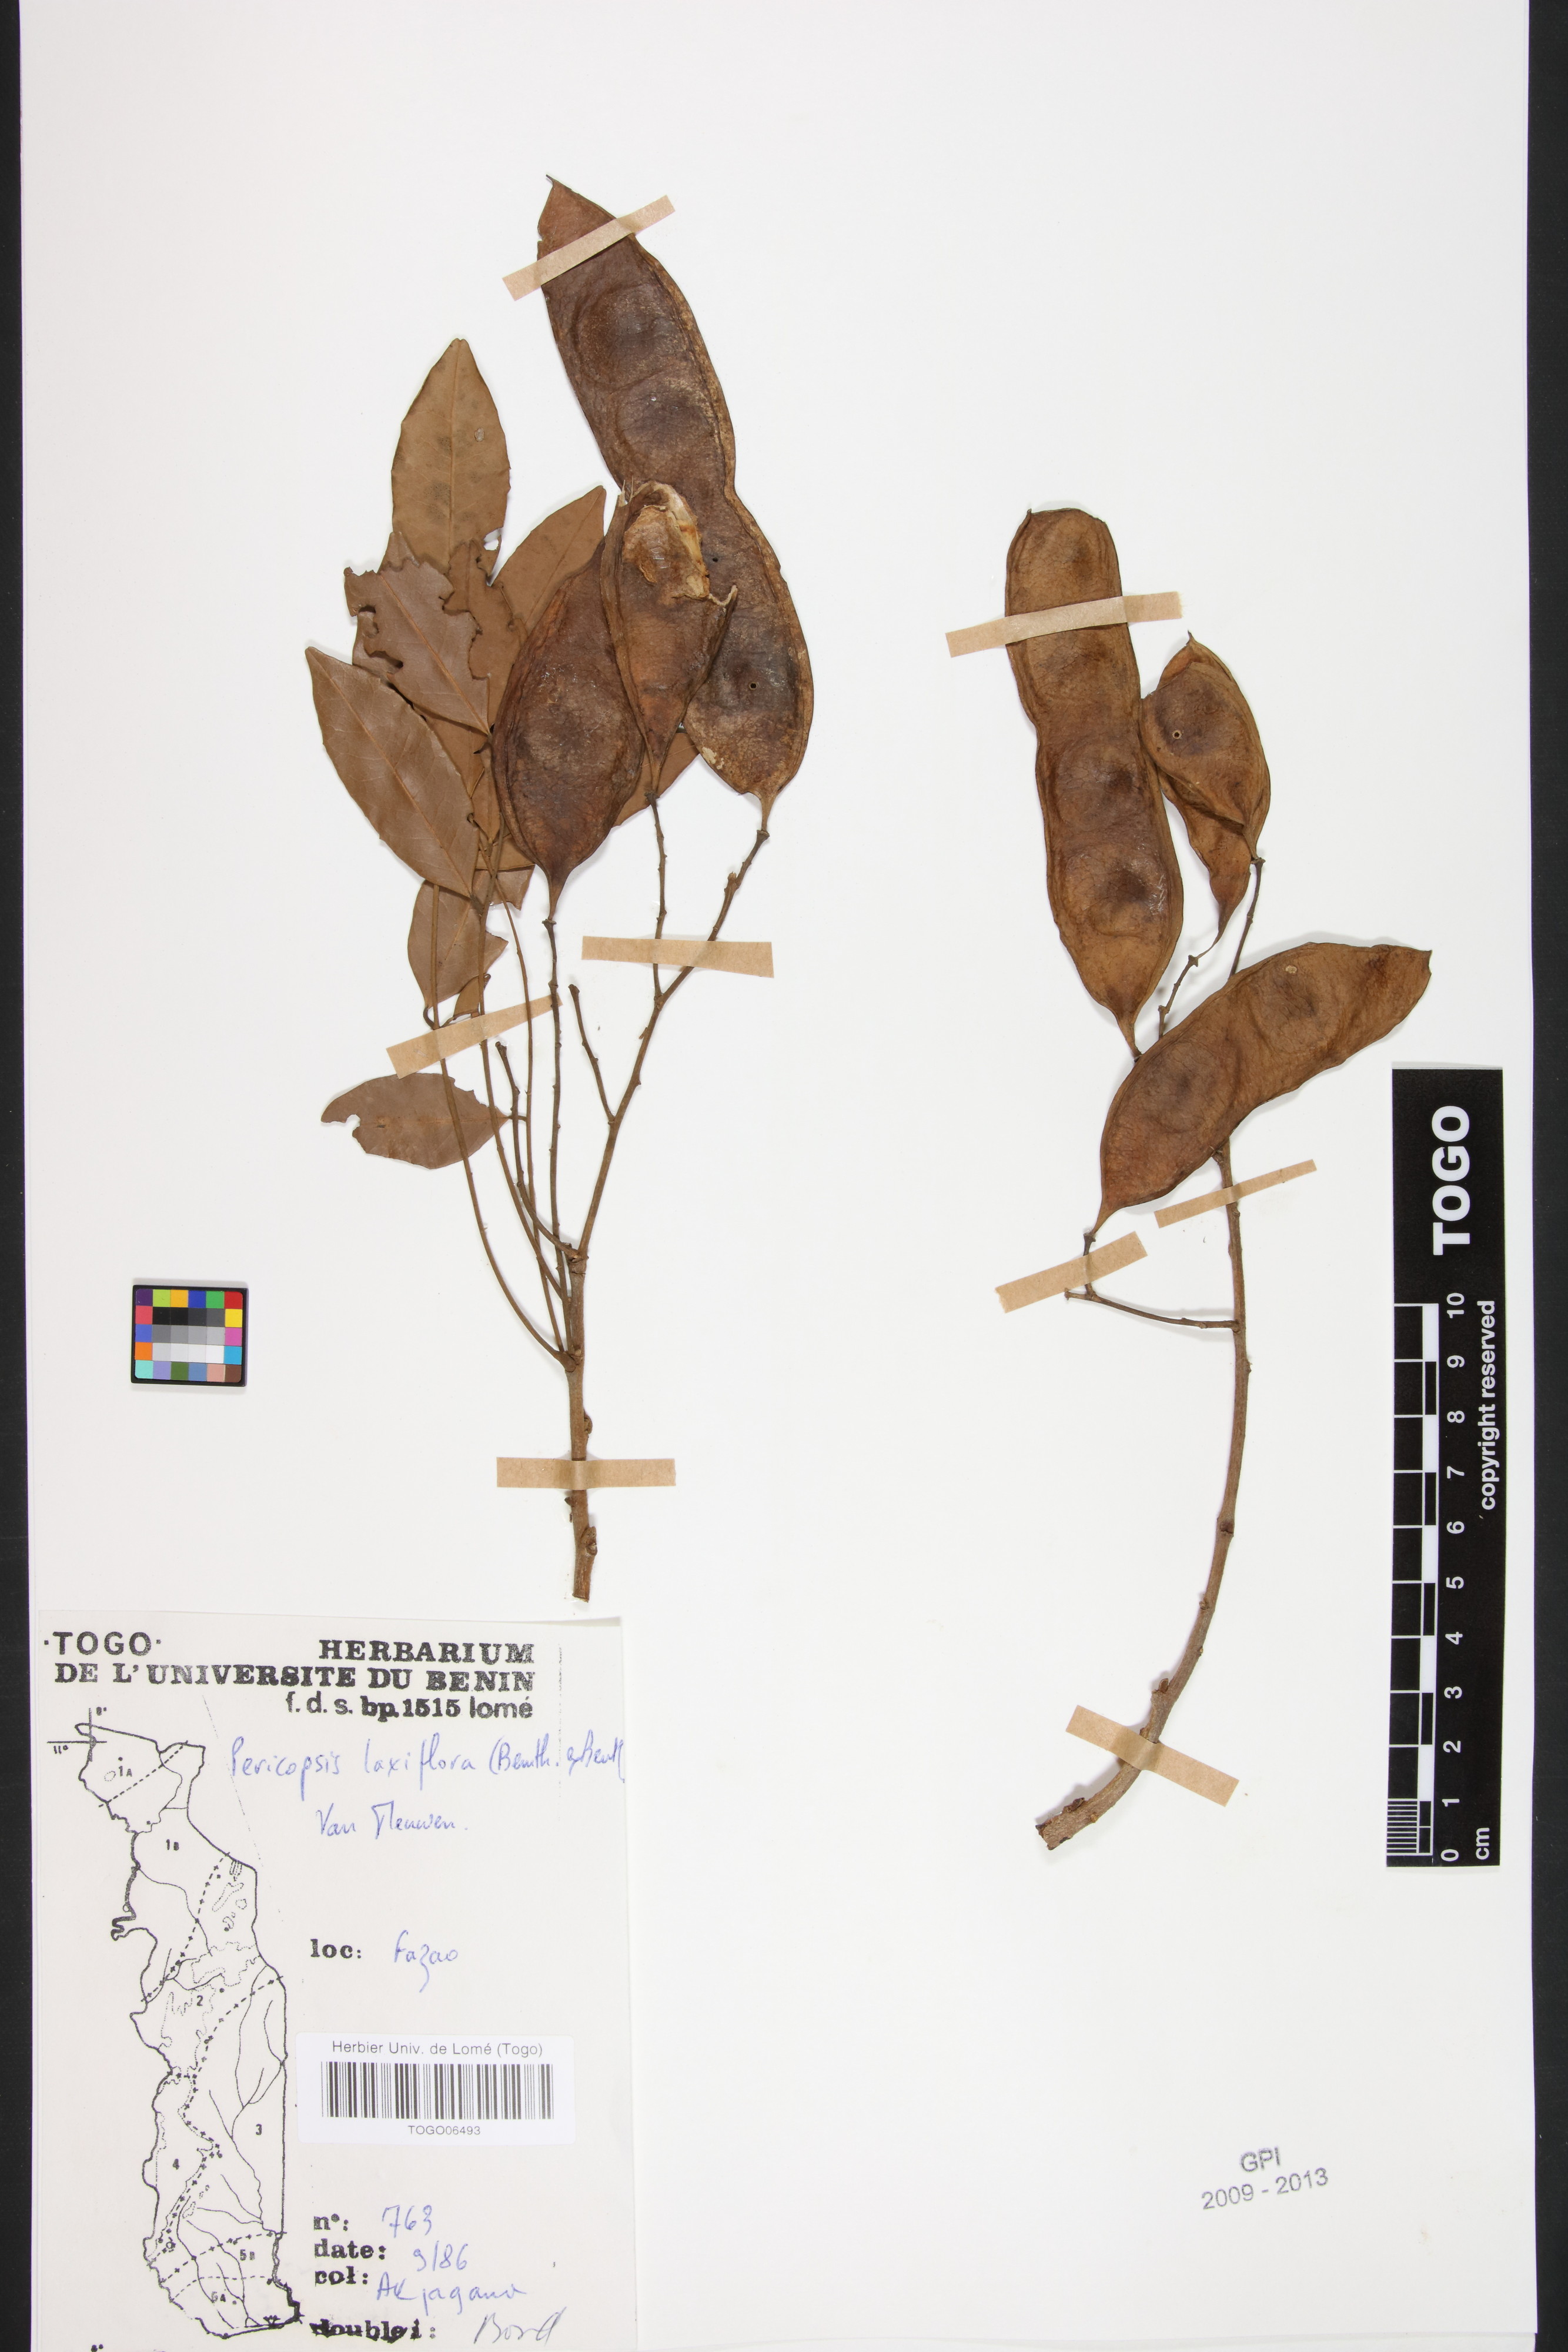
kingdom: Plantae
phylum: Tracheophyta
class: Magnoliopsida
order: Fabales
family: Fabaceae
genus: Pericopsis
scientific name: Pericopsis laxiflora
